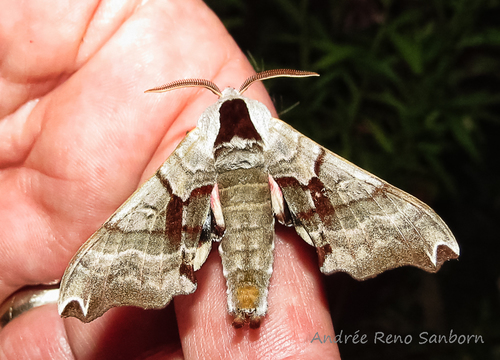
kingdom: Animalia
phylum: Arthropoda
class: Insecta
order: Lepidoptera
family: Sphingidae
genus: Smerinthus
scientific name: Smerinthus jamaicensis
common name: Twin spotted sphinx
